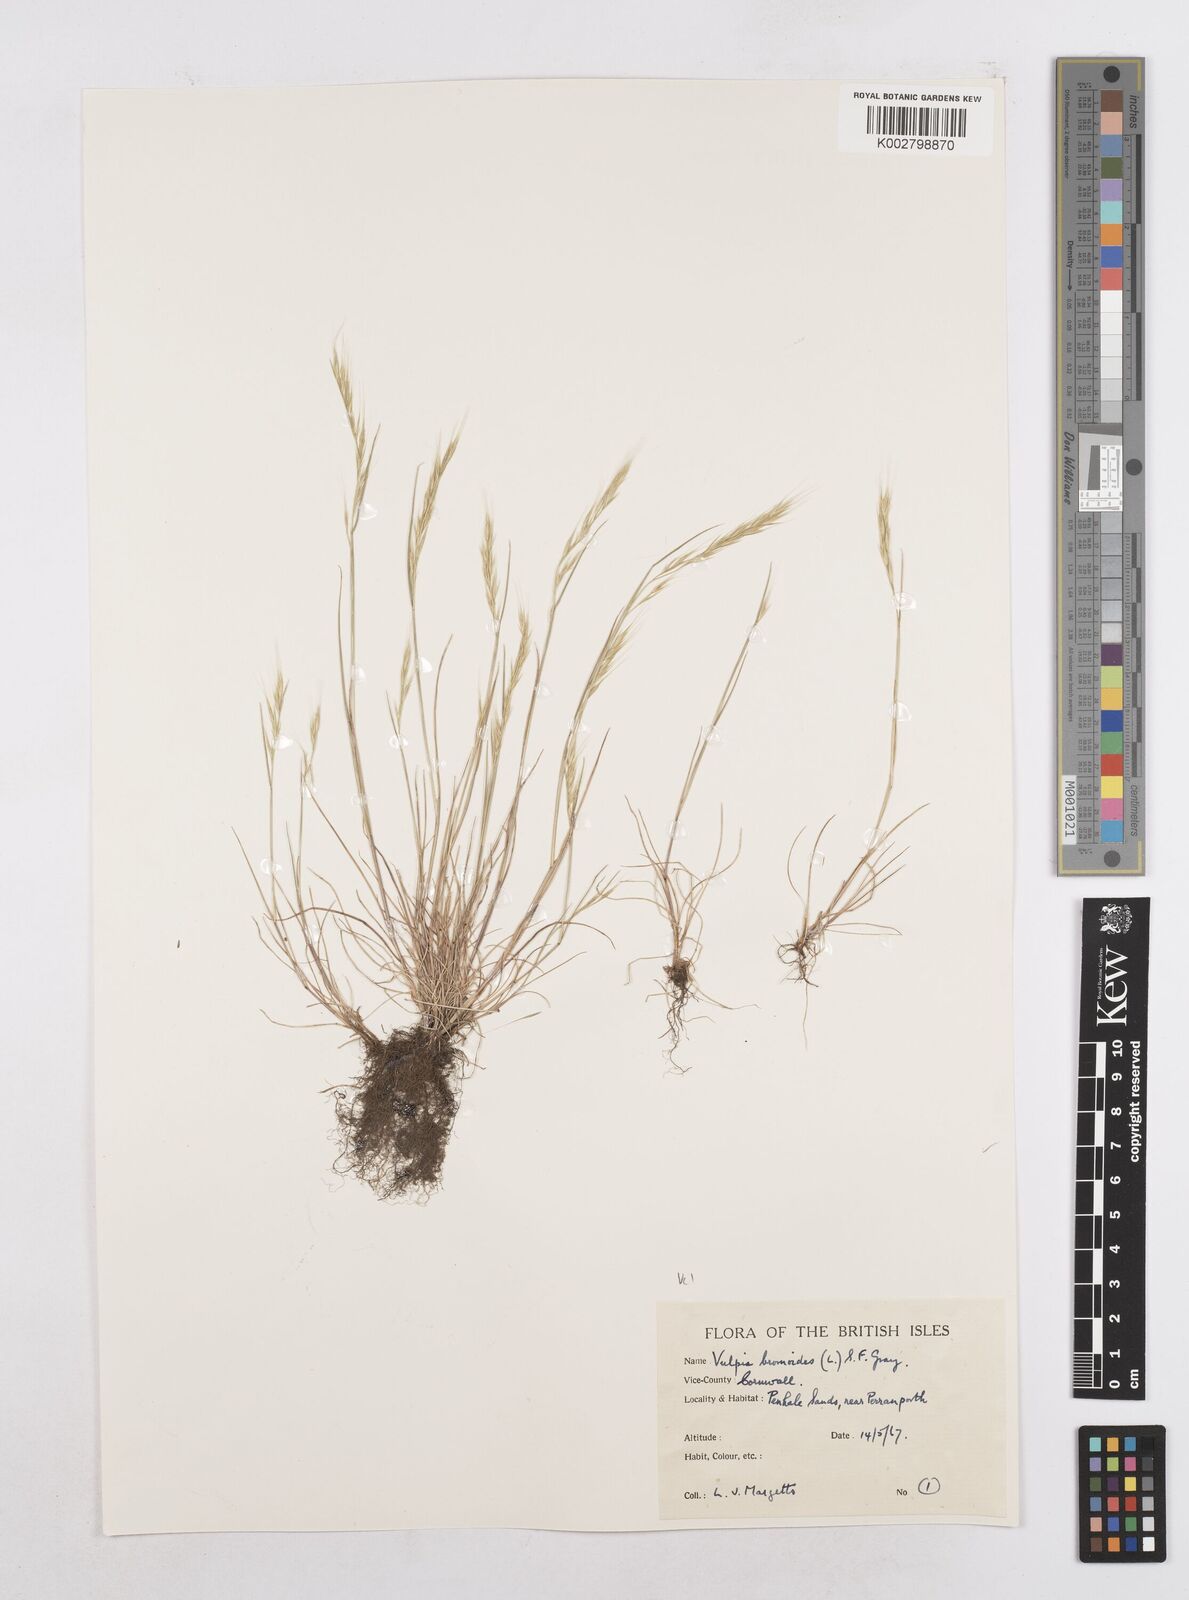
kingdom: Plantae
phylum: Tracheophyta
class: Liliopsida
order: Poales
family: Poaceae
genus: Festuca
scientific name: Festuca bromoides
